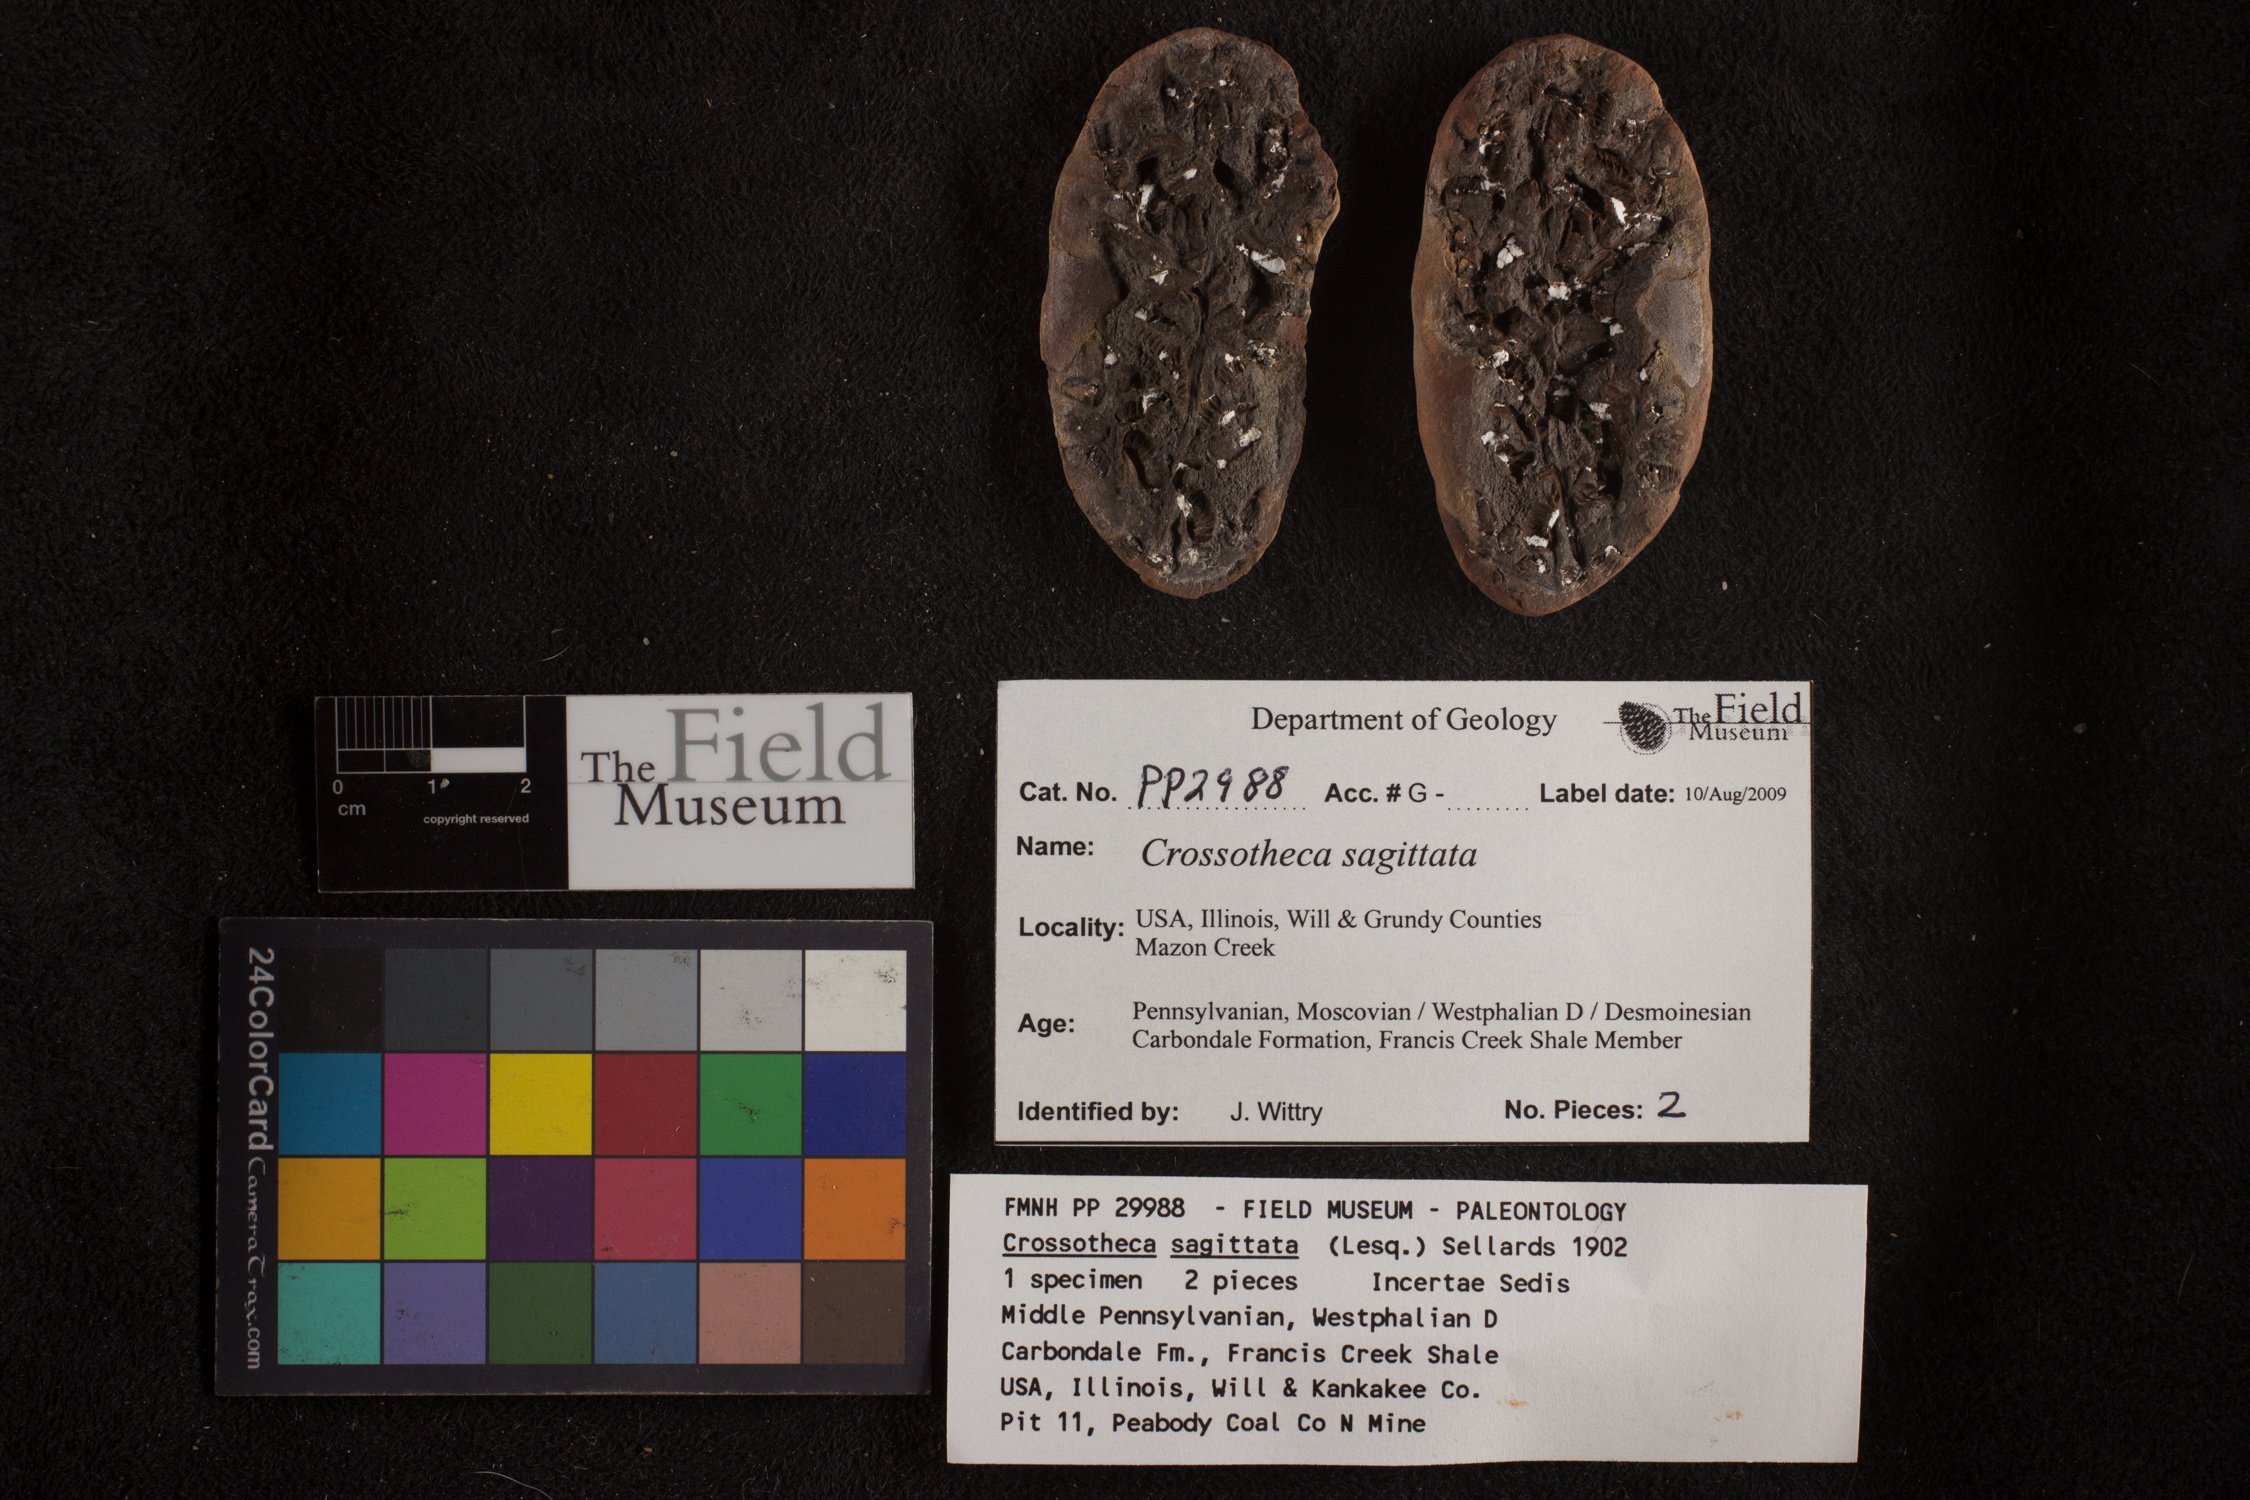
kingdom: Plantae
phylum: Tracheophyta
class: Polypodiopsida
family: Stauropteridaceae
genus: Crossotheca
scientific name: Crossotheca
